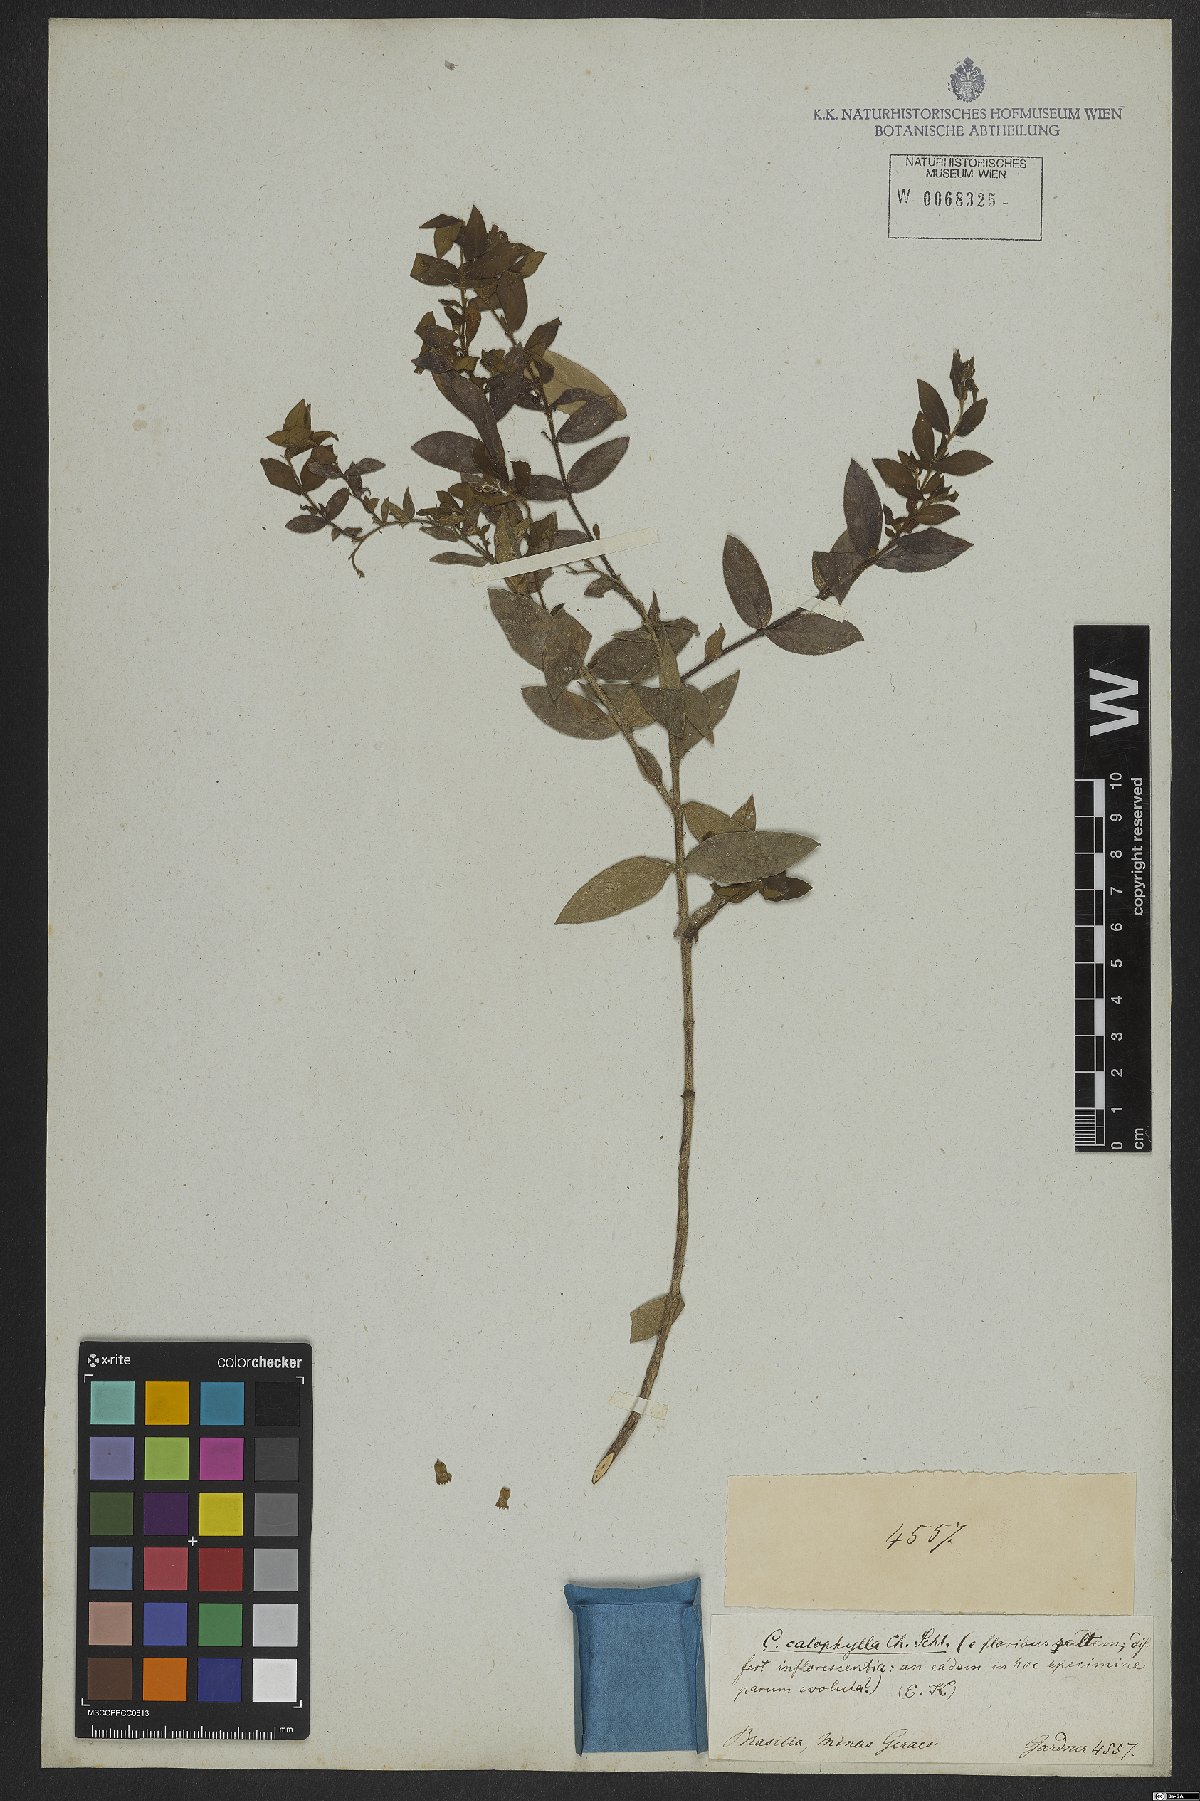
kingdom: Plantae
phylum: Tracheophyta
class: Magnoliopsida
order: Myrtales
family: Lythraceae
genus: Cuphea
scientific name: Cuphea calophylla
